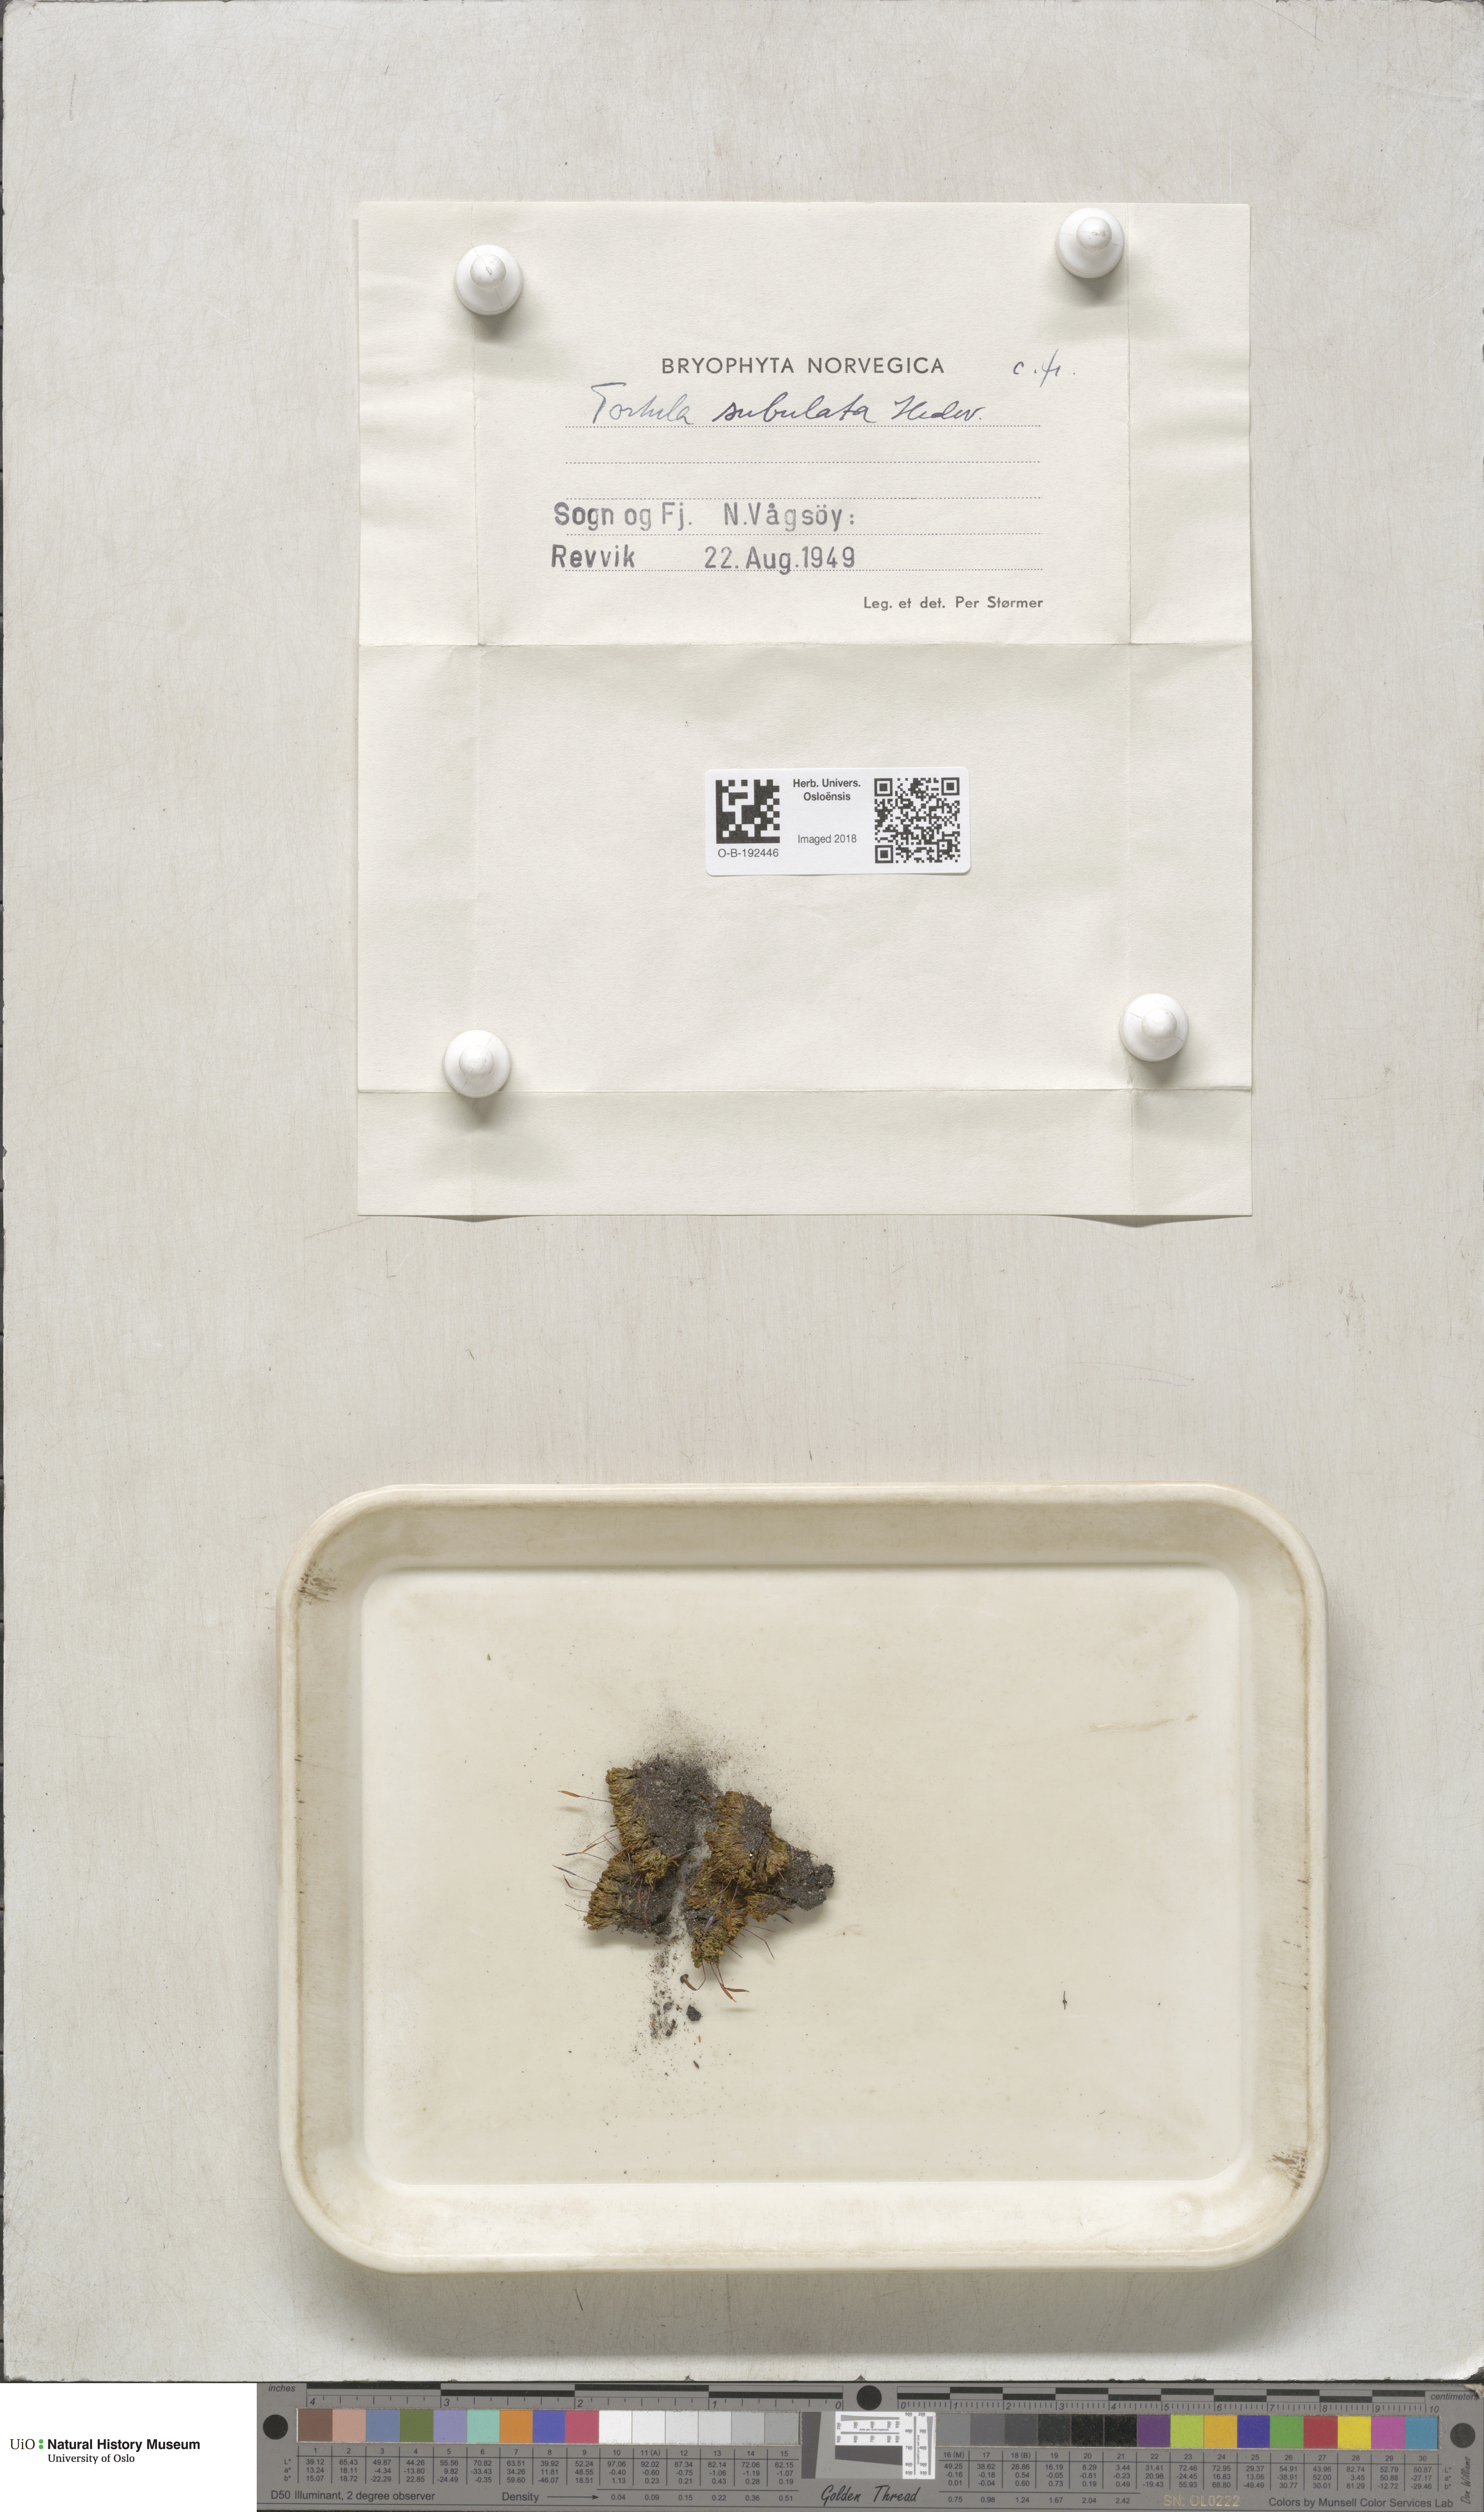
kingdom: Plantae
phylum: Bryophyta
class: Bryopsida
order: Pottiales
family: Pottiaceae
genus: Tortula
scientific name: Tortula subulata
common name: Upright screw-moss
